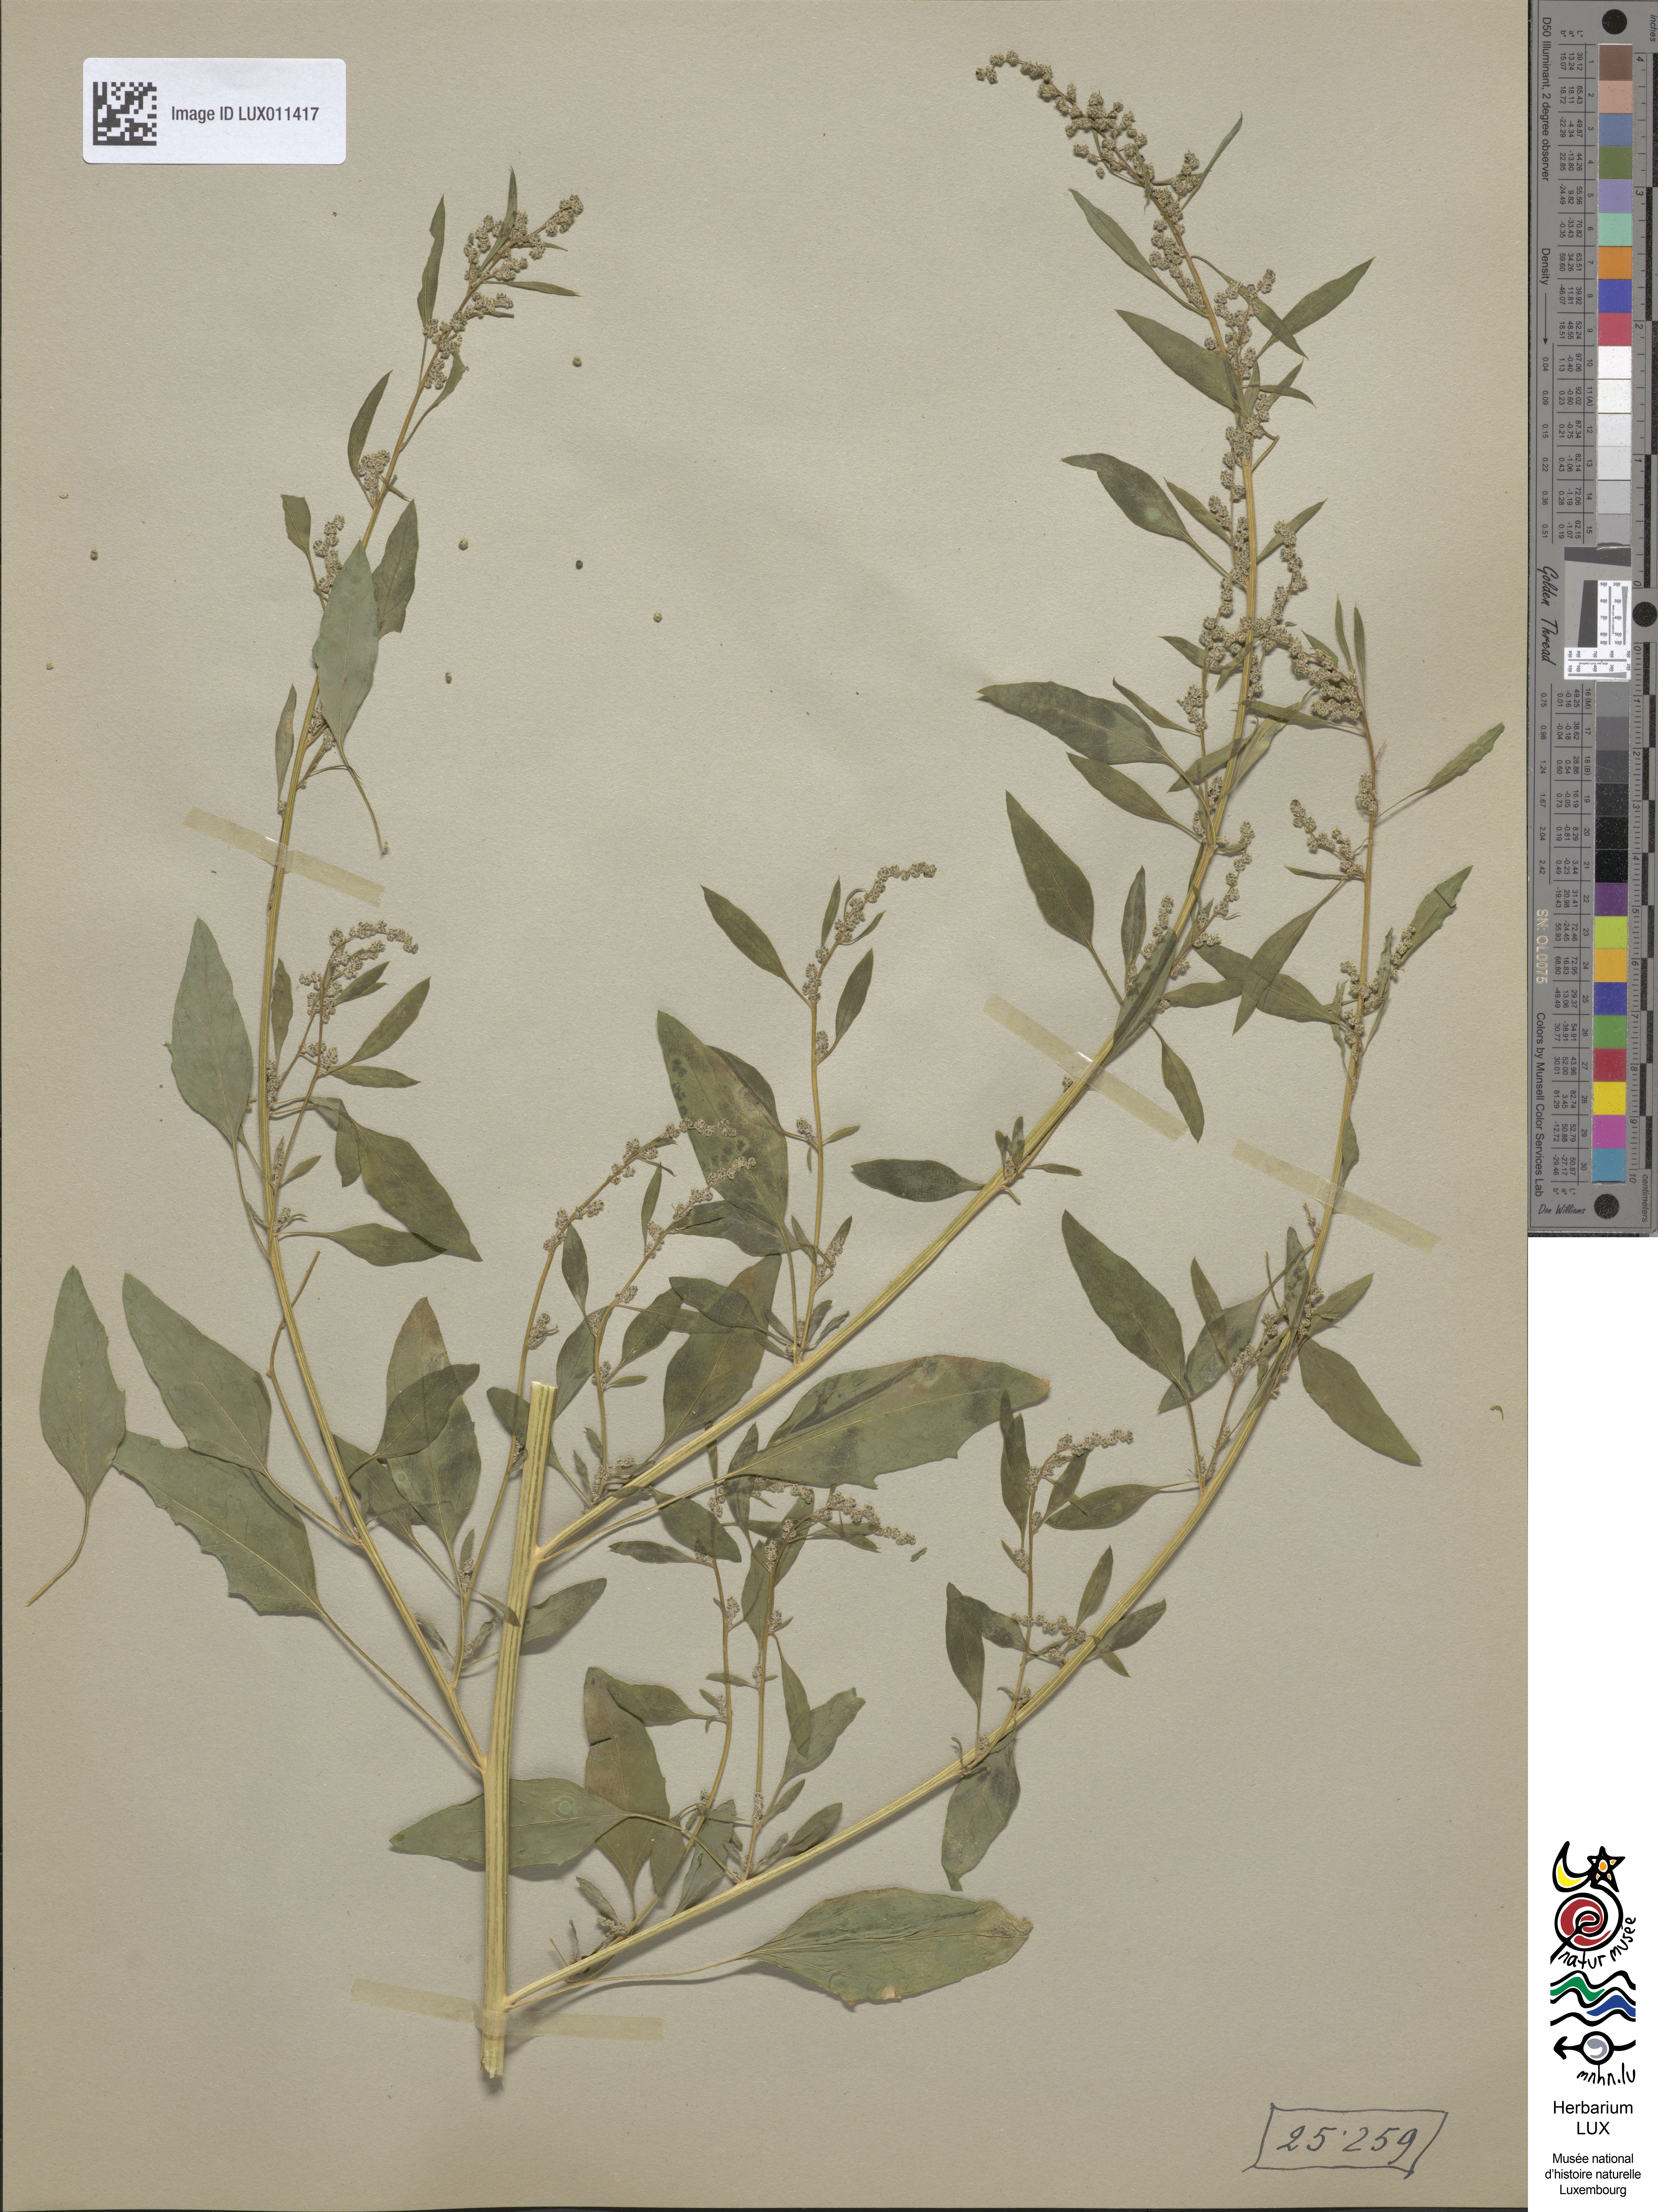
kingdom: Plantae
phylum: Tracheophyta
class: Magnoliopsida
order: Caryophyllales
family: Amaranthaceae
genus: Chenopodium
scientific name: Chenopodium album
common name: Fat-hen
